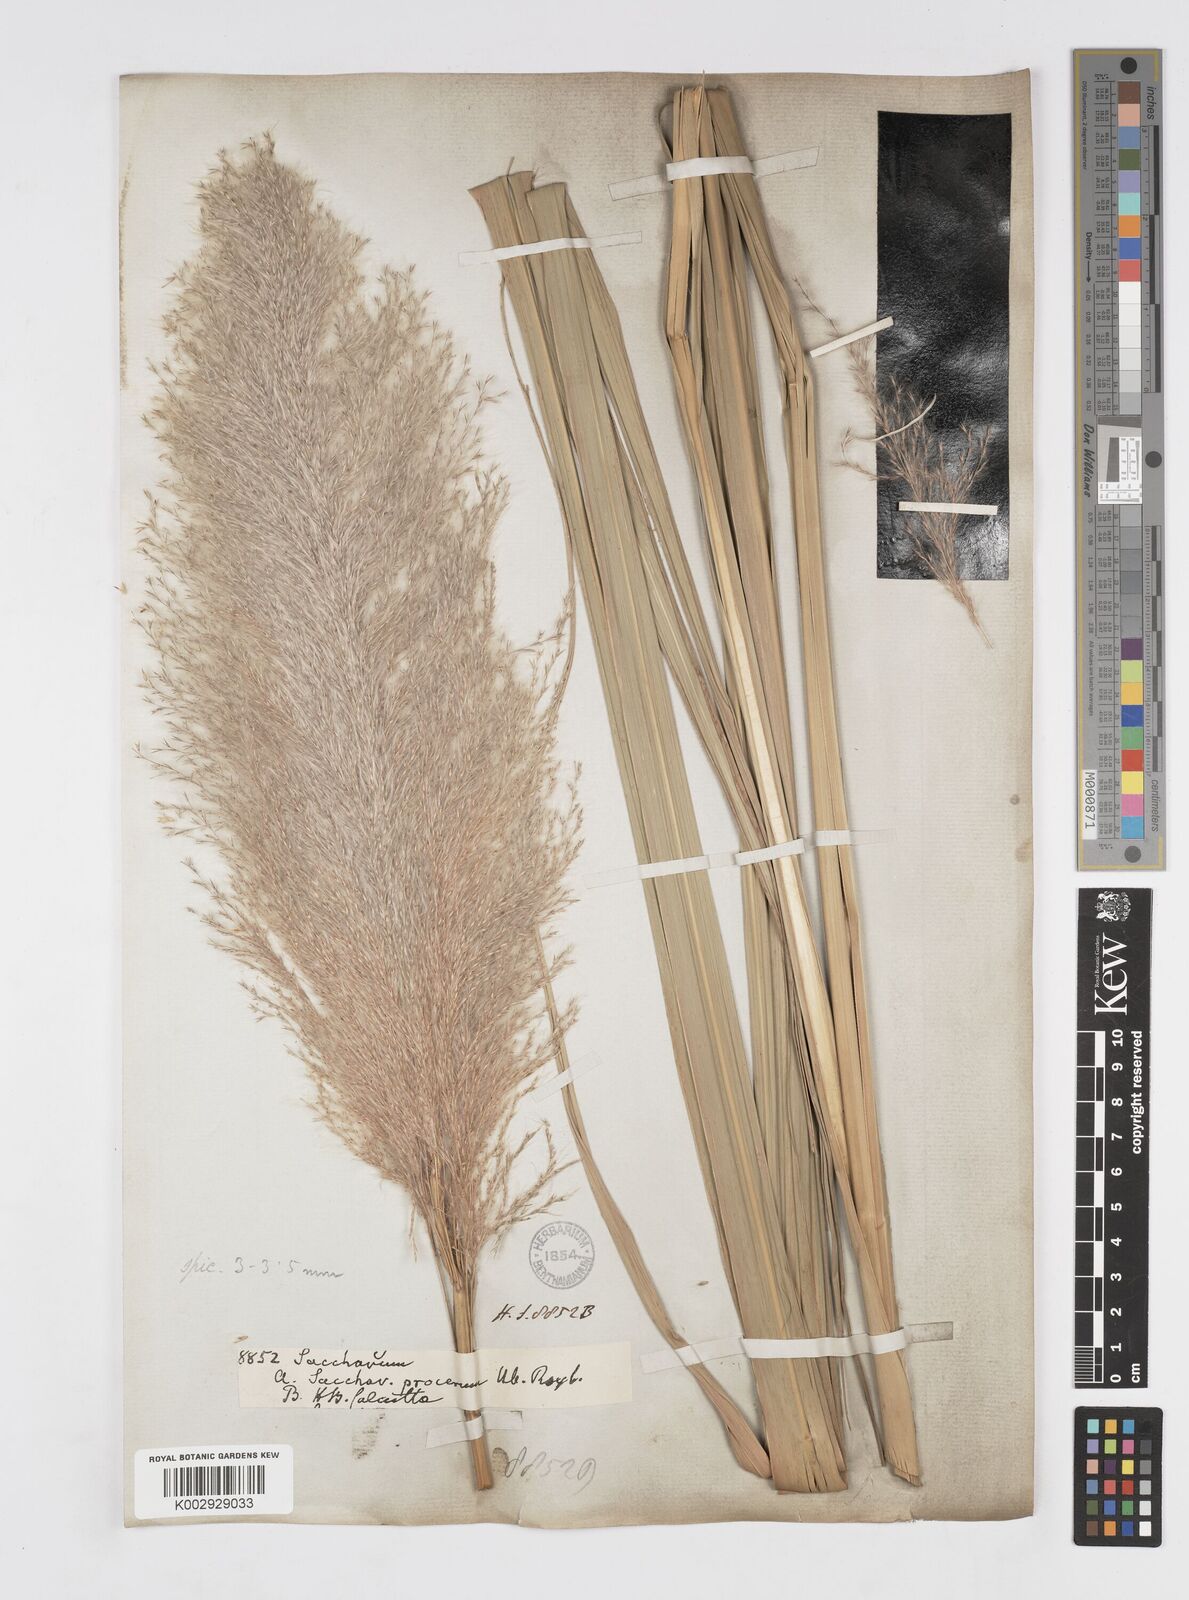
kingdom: Plantae
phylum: Tracheophyta
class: Liliopsida
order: Poales
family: Poaceae
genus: Tripidium
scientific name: Tripidium arundinaceum
